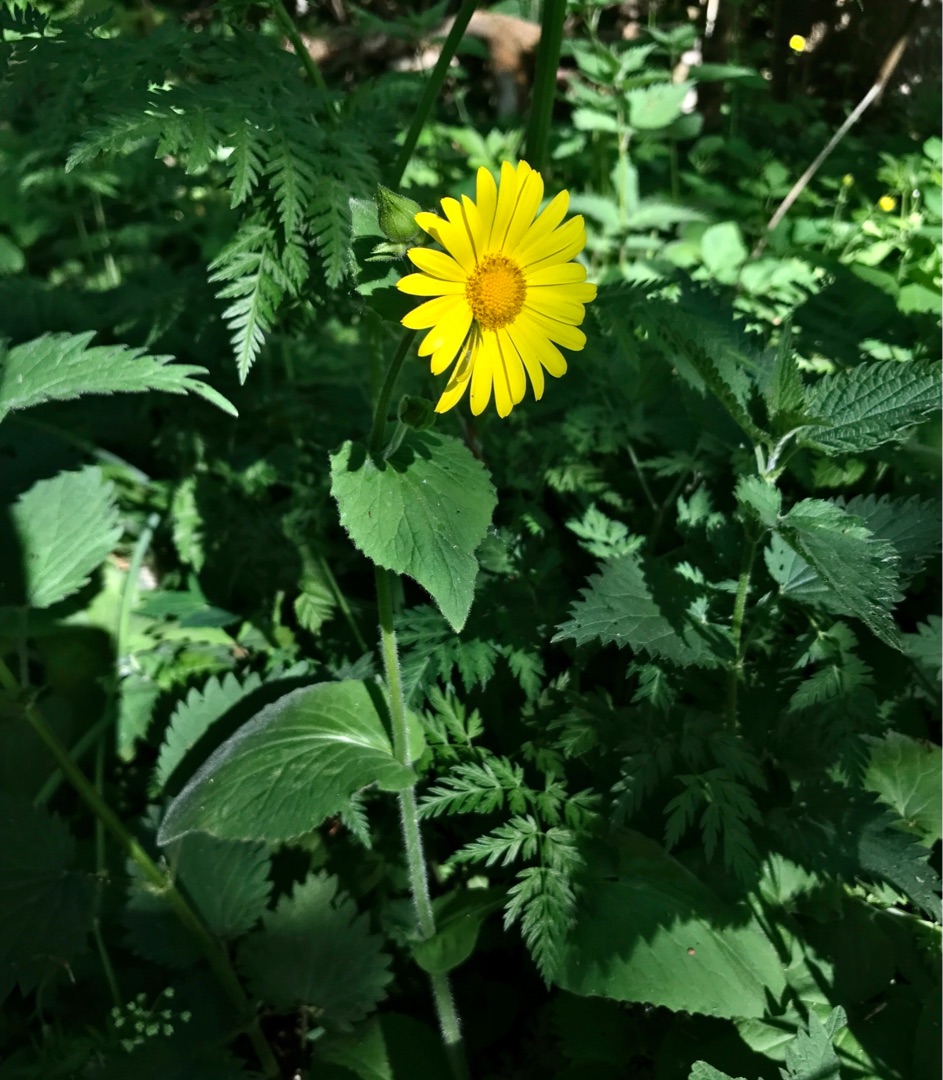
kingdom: Plantae
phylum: Tracheophyta
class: Magnoliopsida
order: Asterales
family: Asteraceae
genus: Doronicum
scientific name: Doronicum pardalianches
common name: Hjertebladet gemserod
